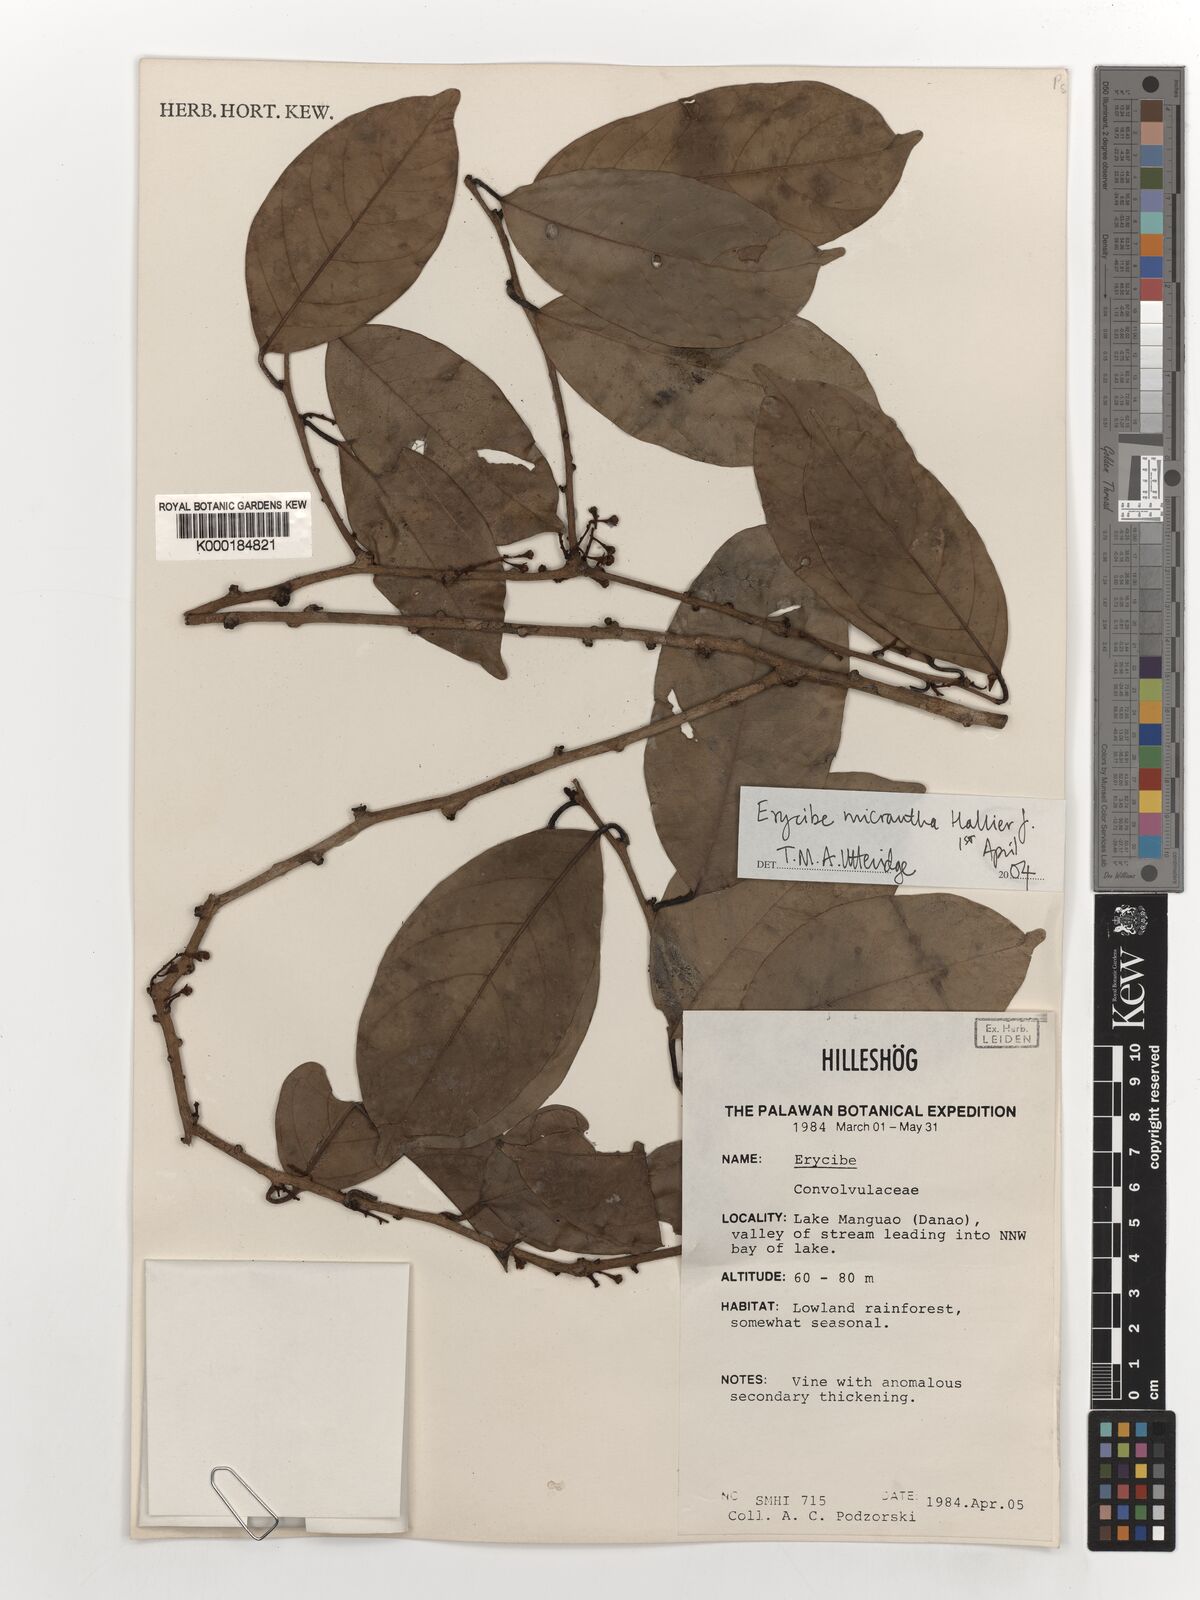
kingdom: Plantae
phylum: Tracheophyta
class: Magnoliopsida
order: Solanales
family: Convolvulaceae
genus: Erycibe
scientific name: Erycibe micrantha
